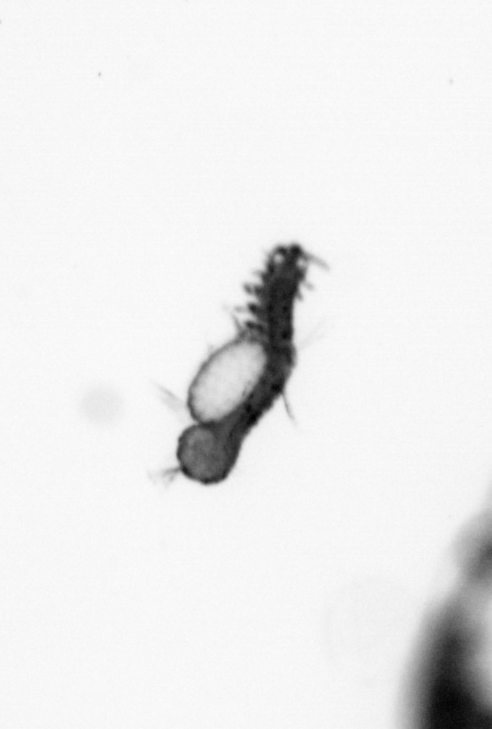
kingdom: Animalia
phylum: Annelida
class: Polychaeta
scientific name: Polychaeta
